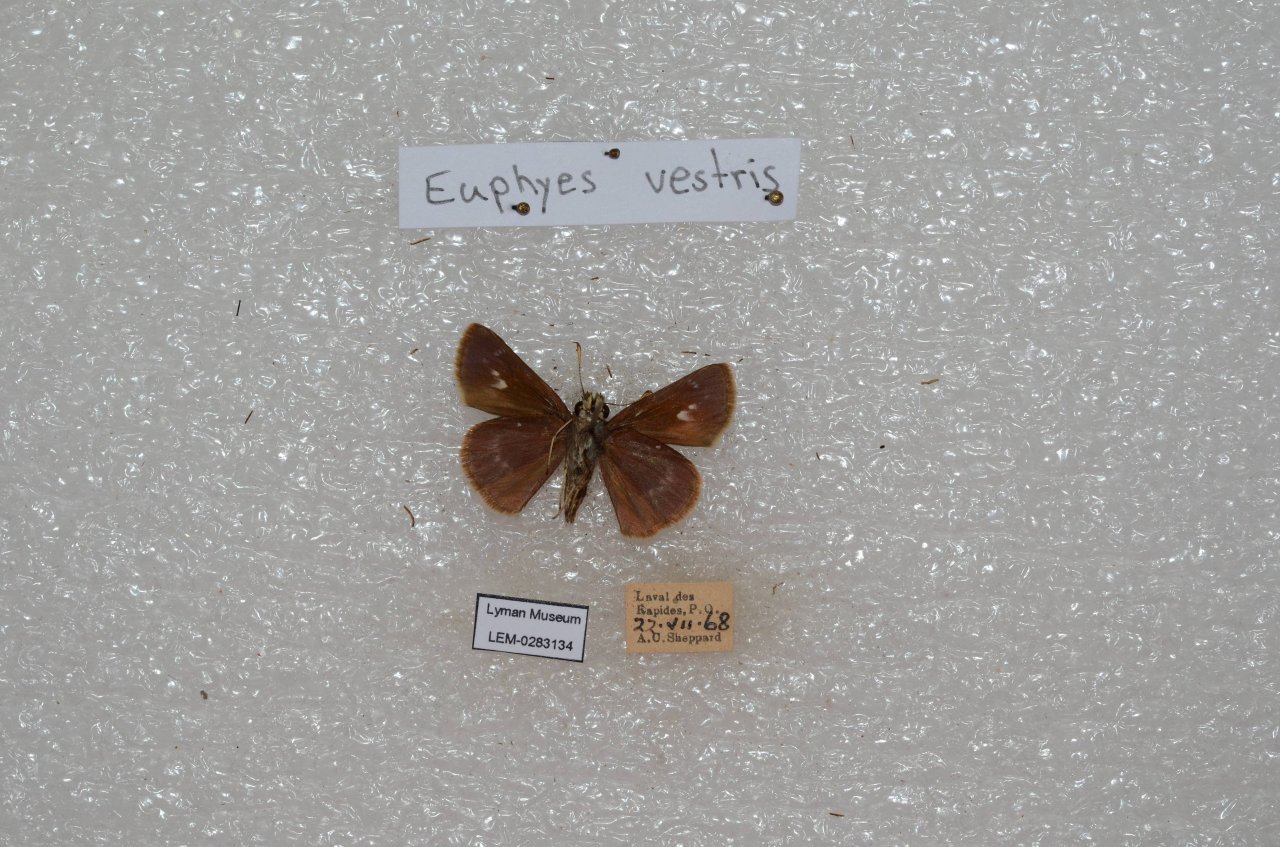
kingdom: Animalia
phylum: Arthropoda
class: Insecta
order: Lepidoptera
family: Hesperiidae
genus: Euphyes
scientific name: Euphyes vestris
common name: Dun Skipper
